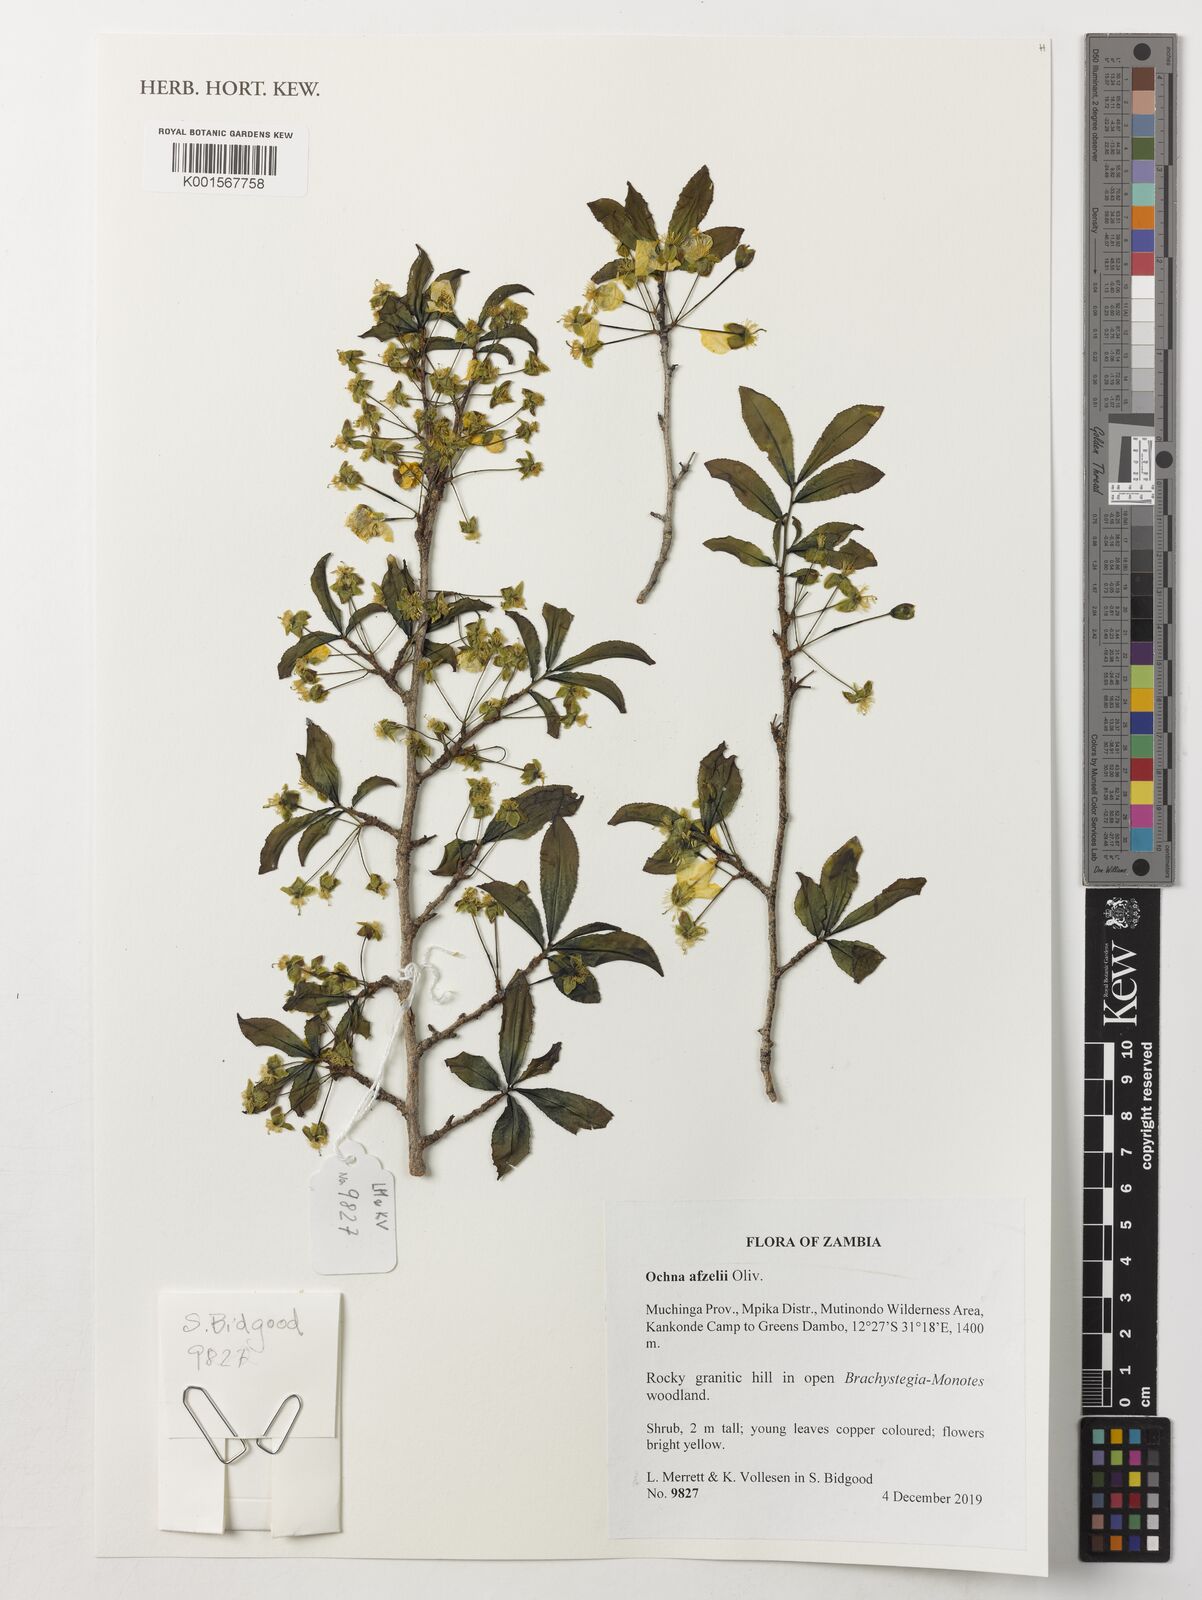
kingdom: Plantae
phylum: Tracheophyta
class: Magnoliopsida
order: Malpighiales
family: Ochnaceae
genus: Ochna
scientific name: Ochna afzelii
